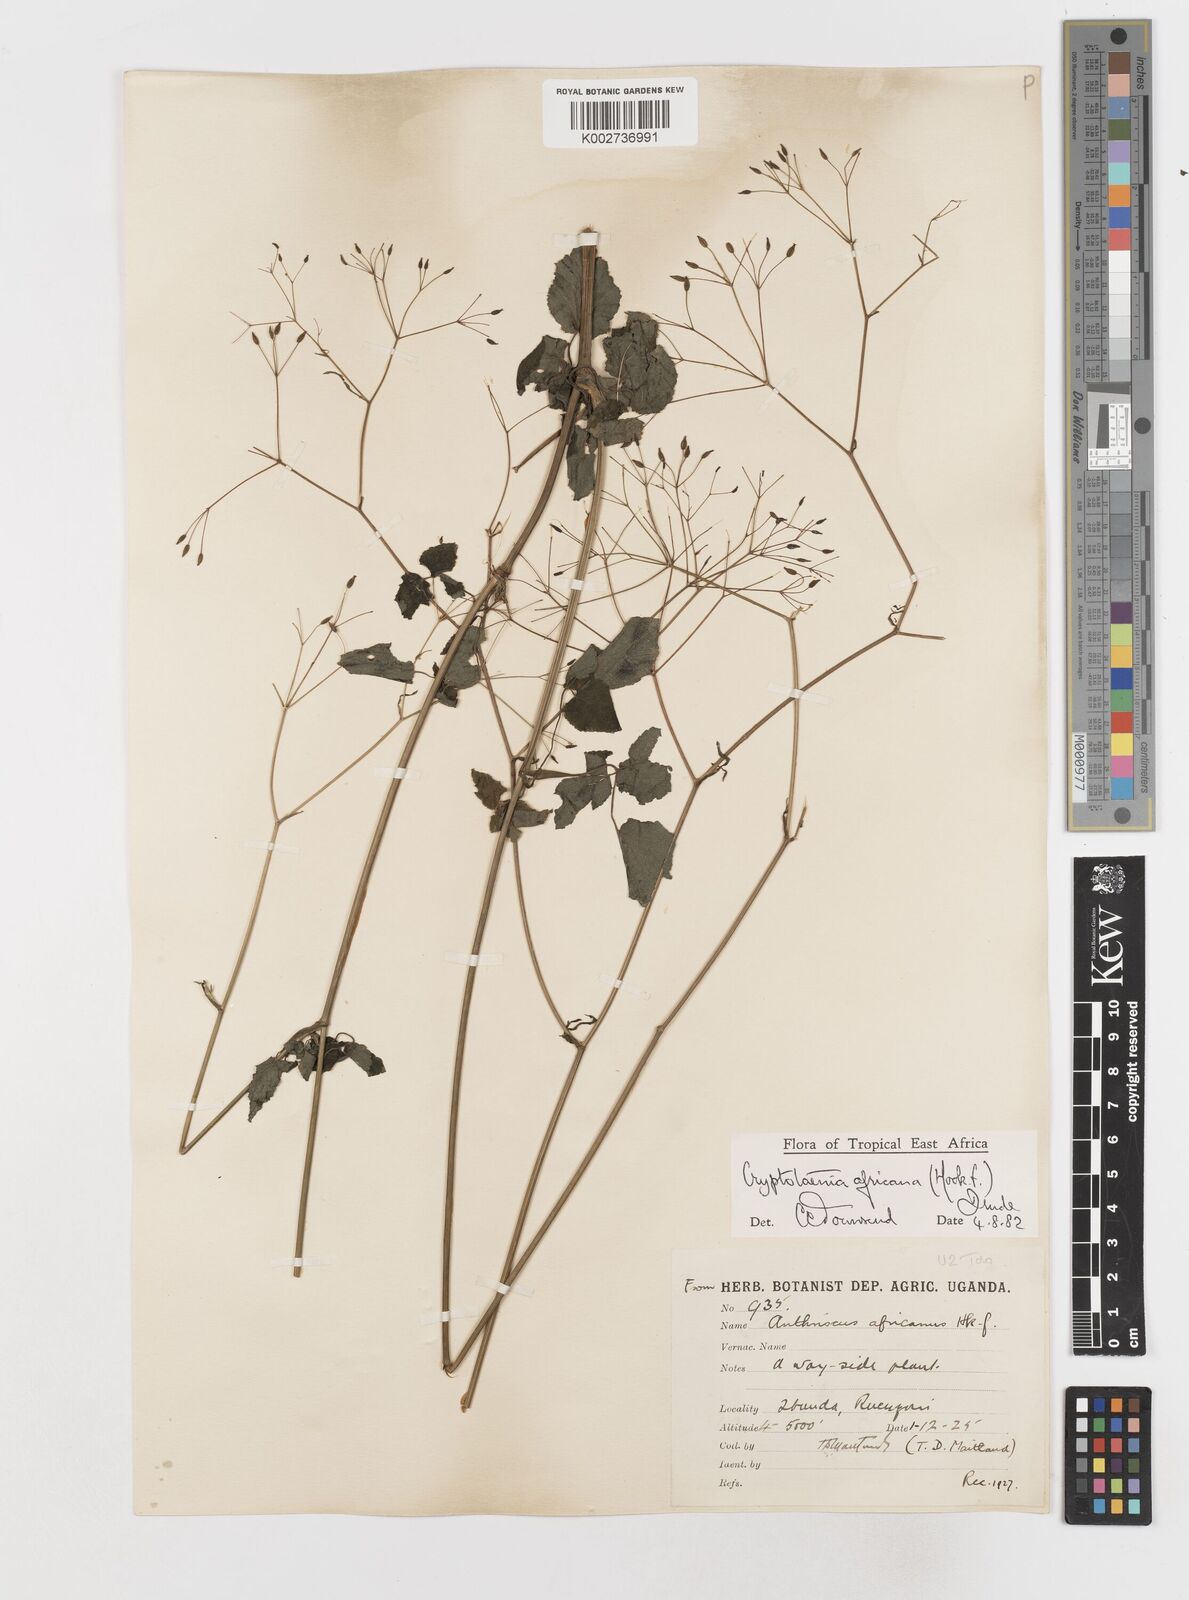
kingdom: Plantae
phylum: Tracheophyta
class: Magnoliopsida
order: Apiales
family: Apiaceae
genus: Cryptotaenia
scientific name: Cryptotaenia africana
